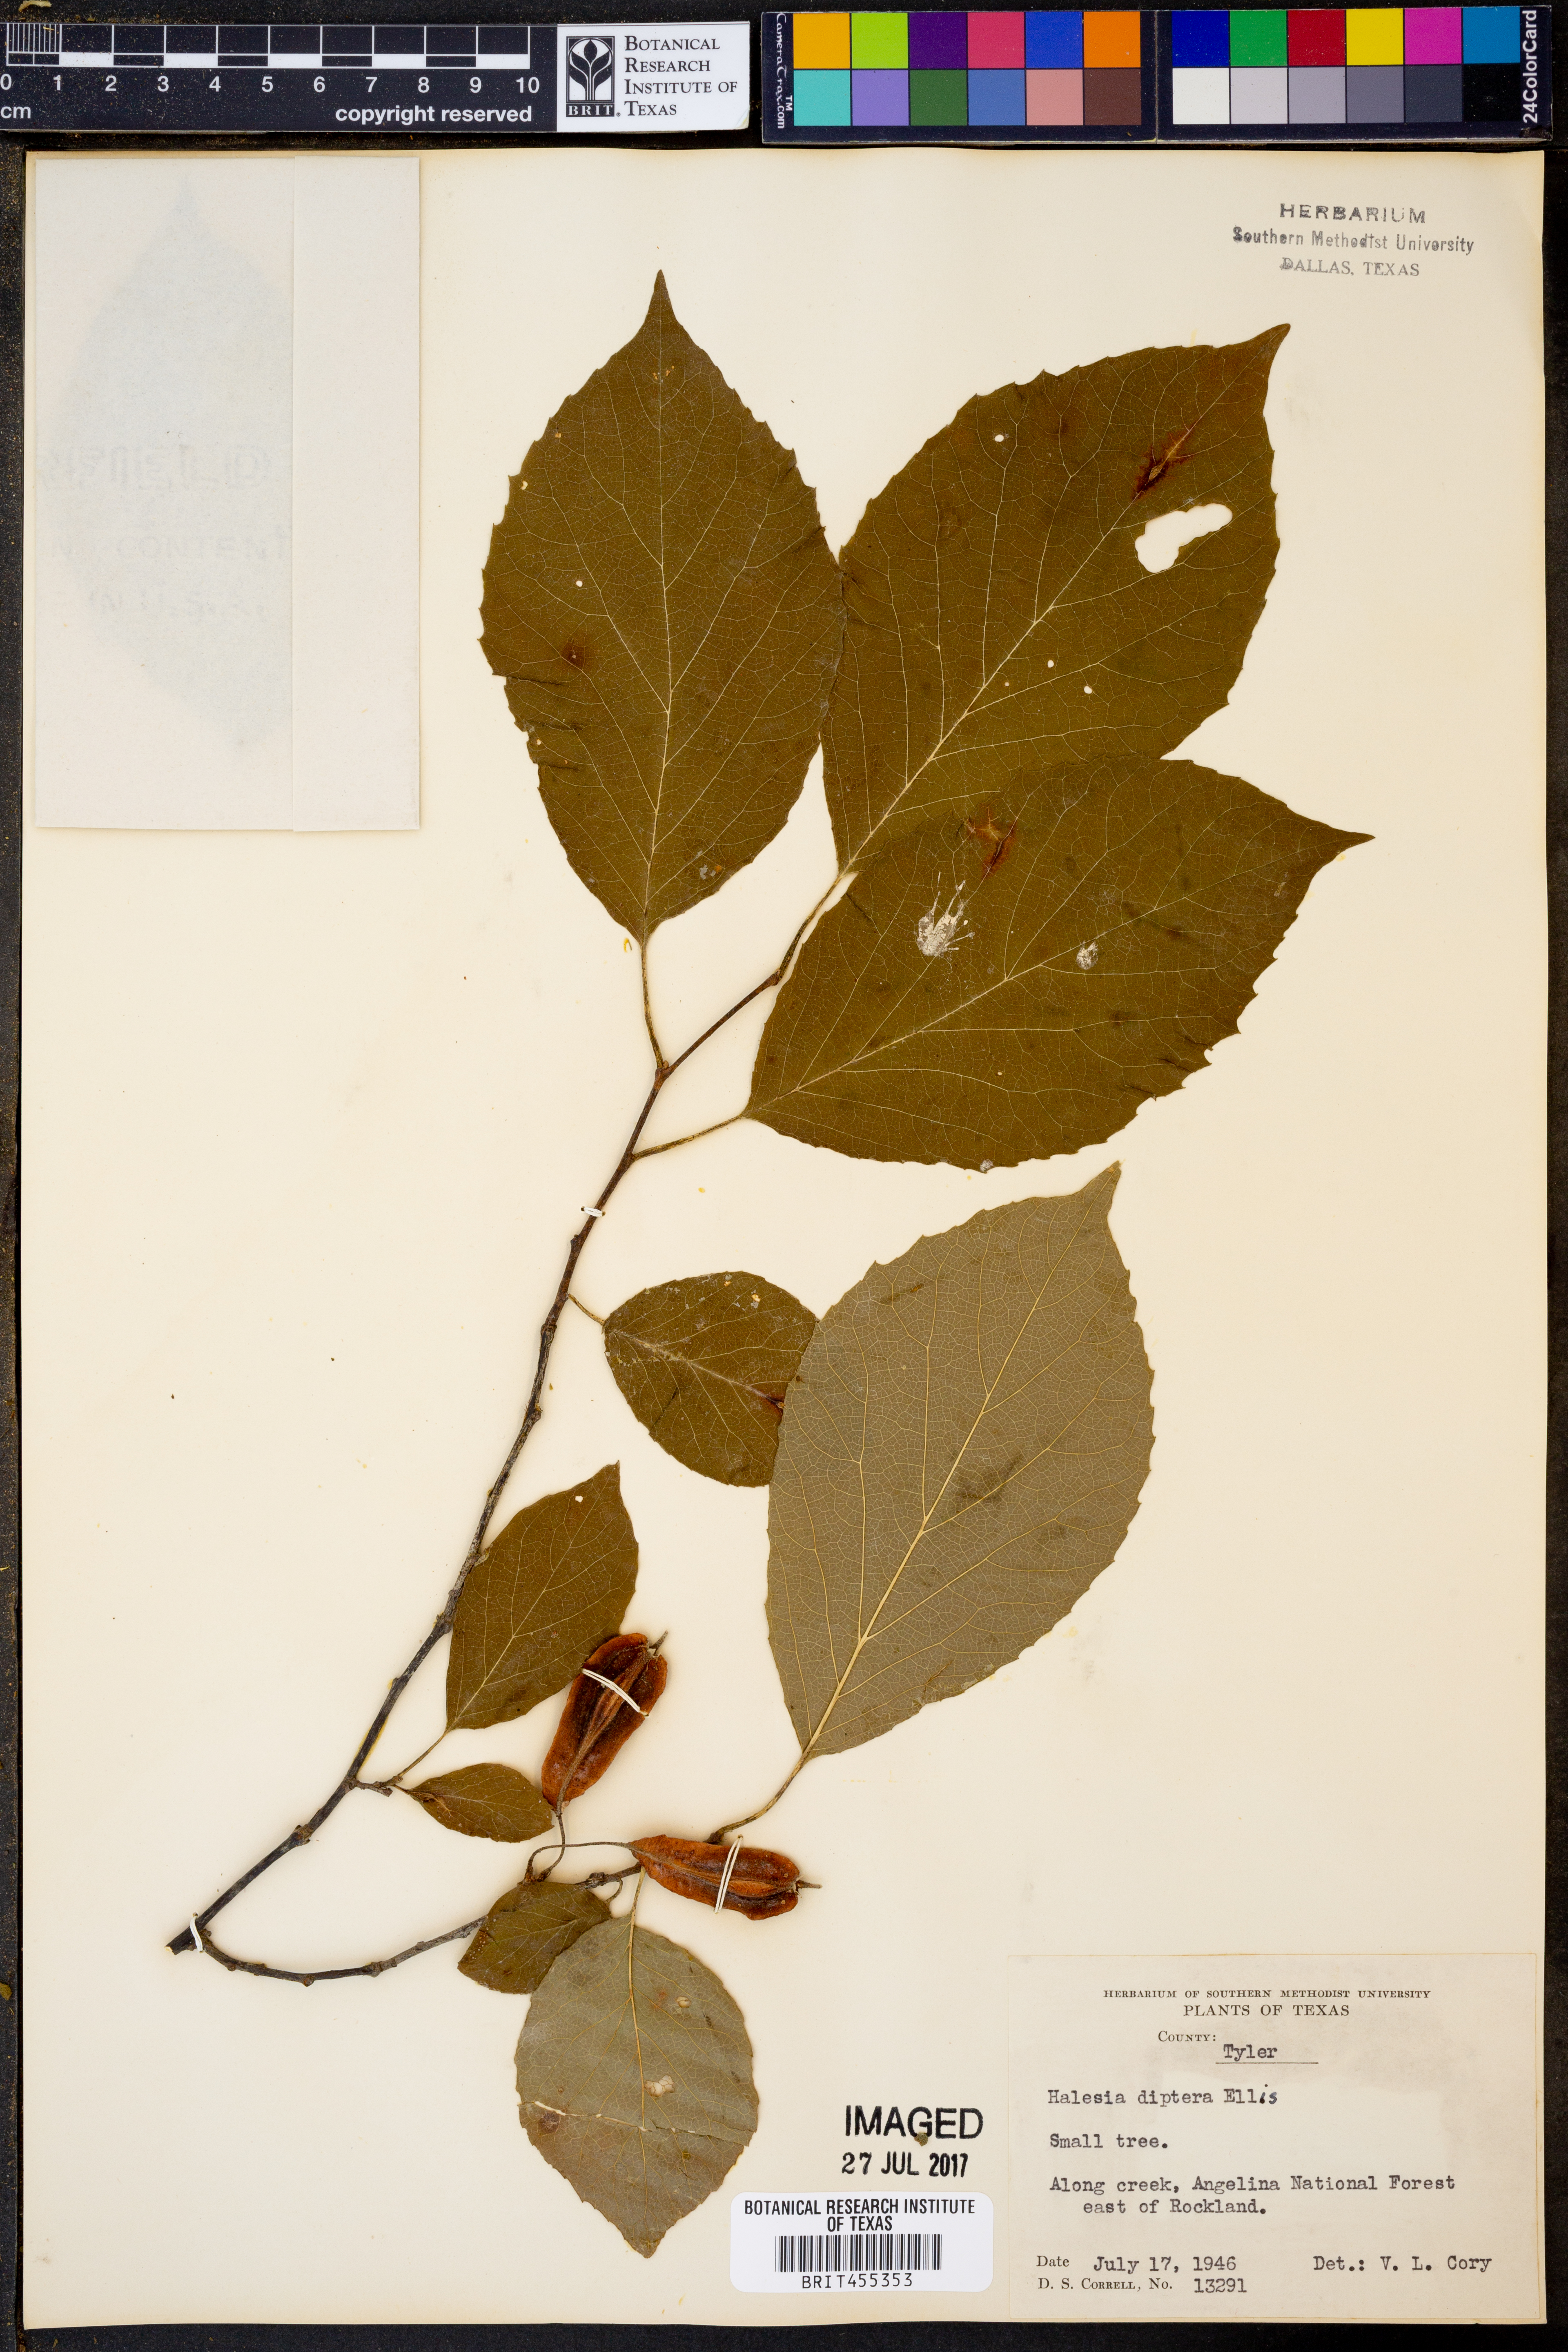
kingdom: Plantae
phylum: Tracheophyta
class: Magnoliopsida
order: Ericales
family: Styracaceae
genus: Halesia
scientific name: Halesia diptera
